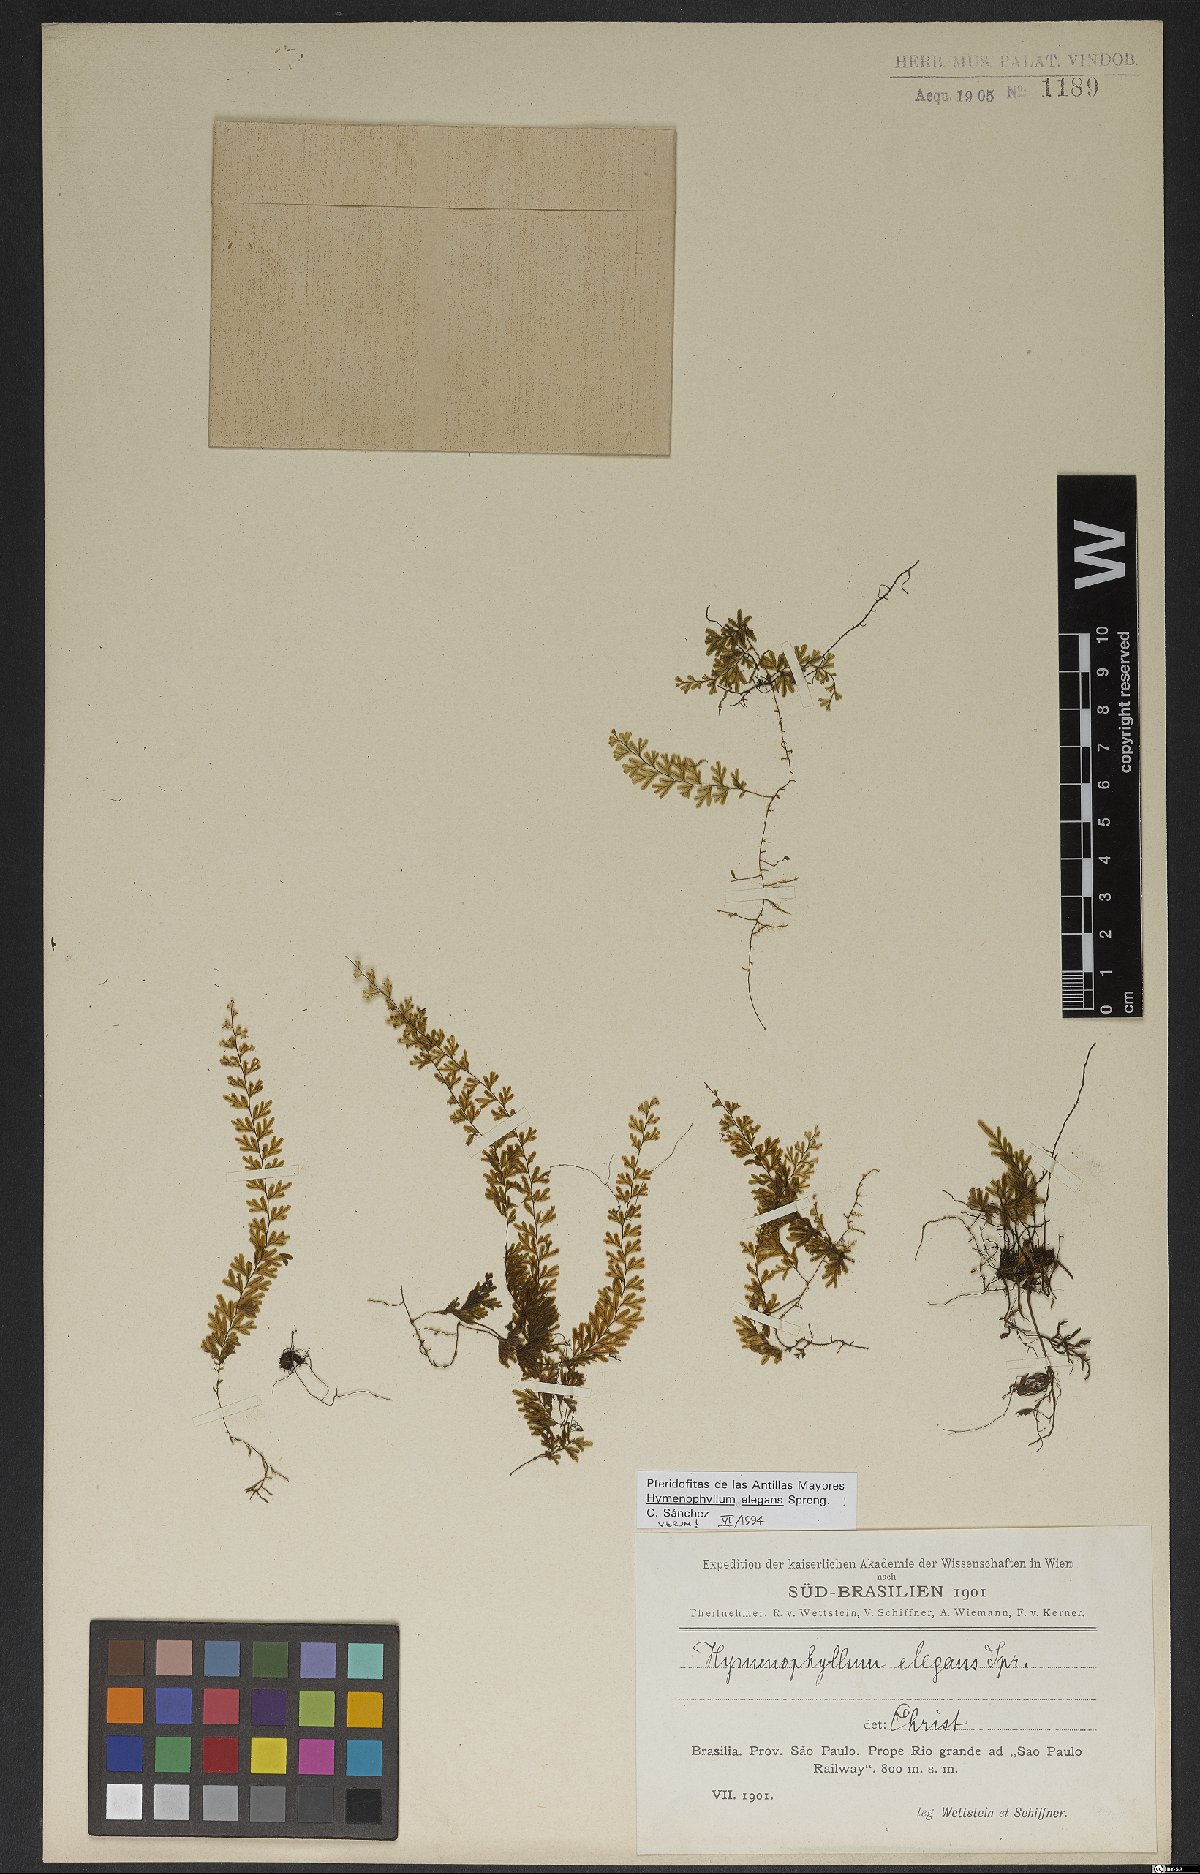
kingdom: Plantae
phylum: Tracheophyta
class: Polypodiopsida
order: Hymenophyllales
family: Hymenophyllaceae
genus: Hymenophyllum
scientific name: Hymenophyllum elegans
